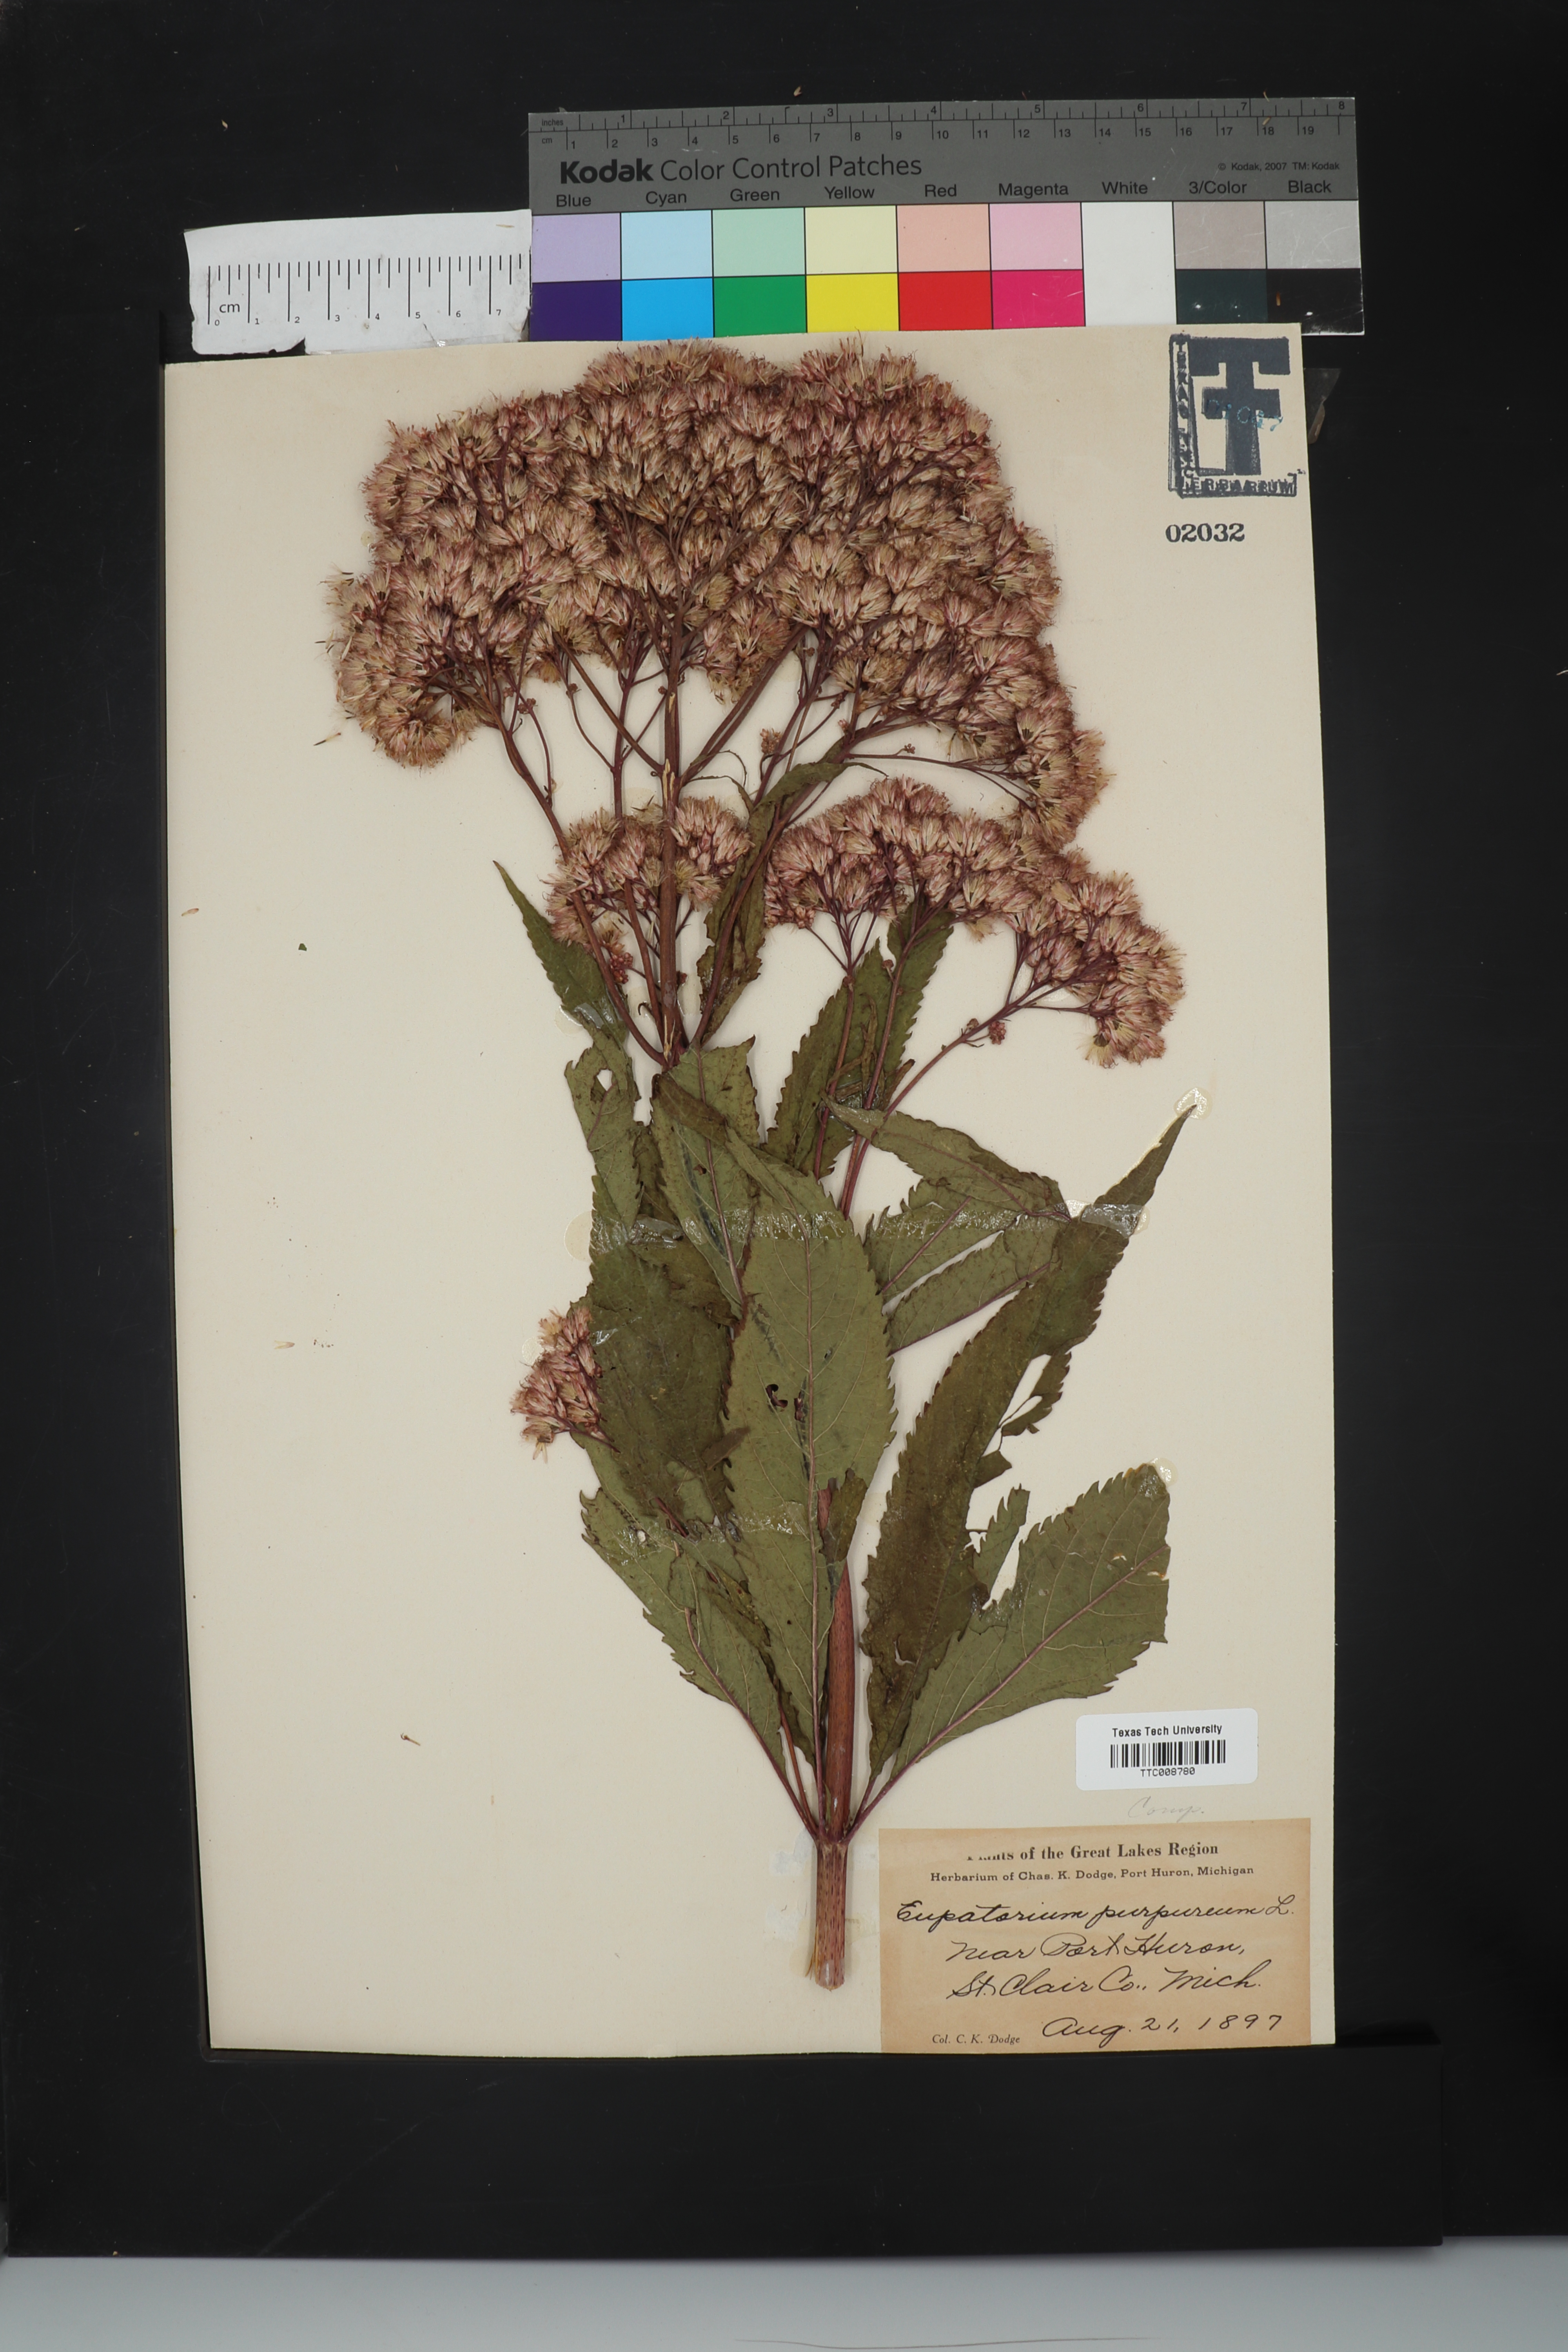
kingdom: Plantae
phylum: Tracheophyta
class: Magnoliopsida
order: Asterales
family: Asteraceae
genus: Eupatorium
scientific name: Eupatorium quaternum
